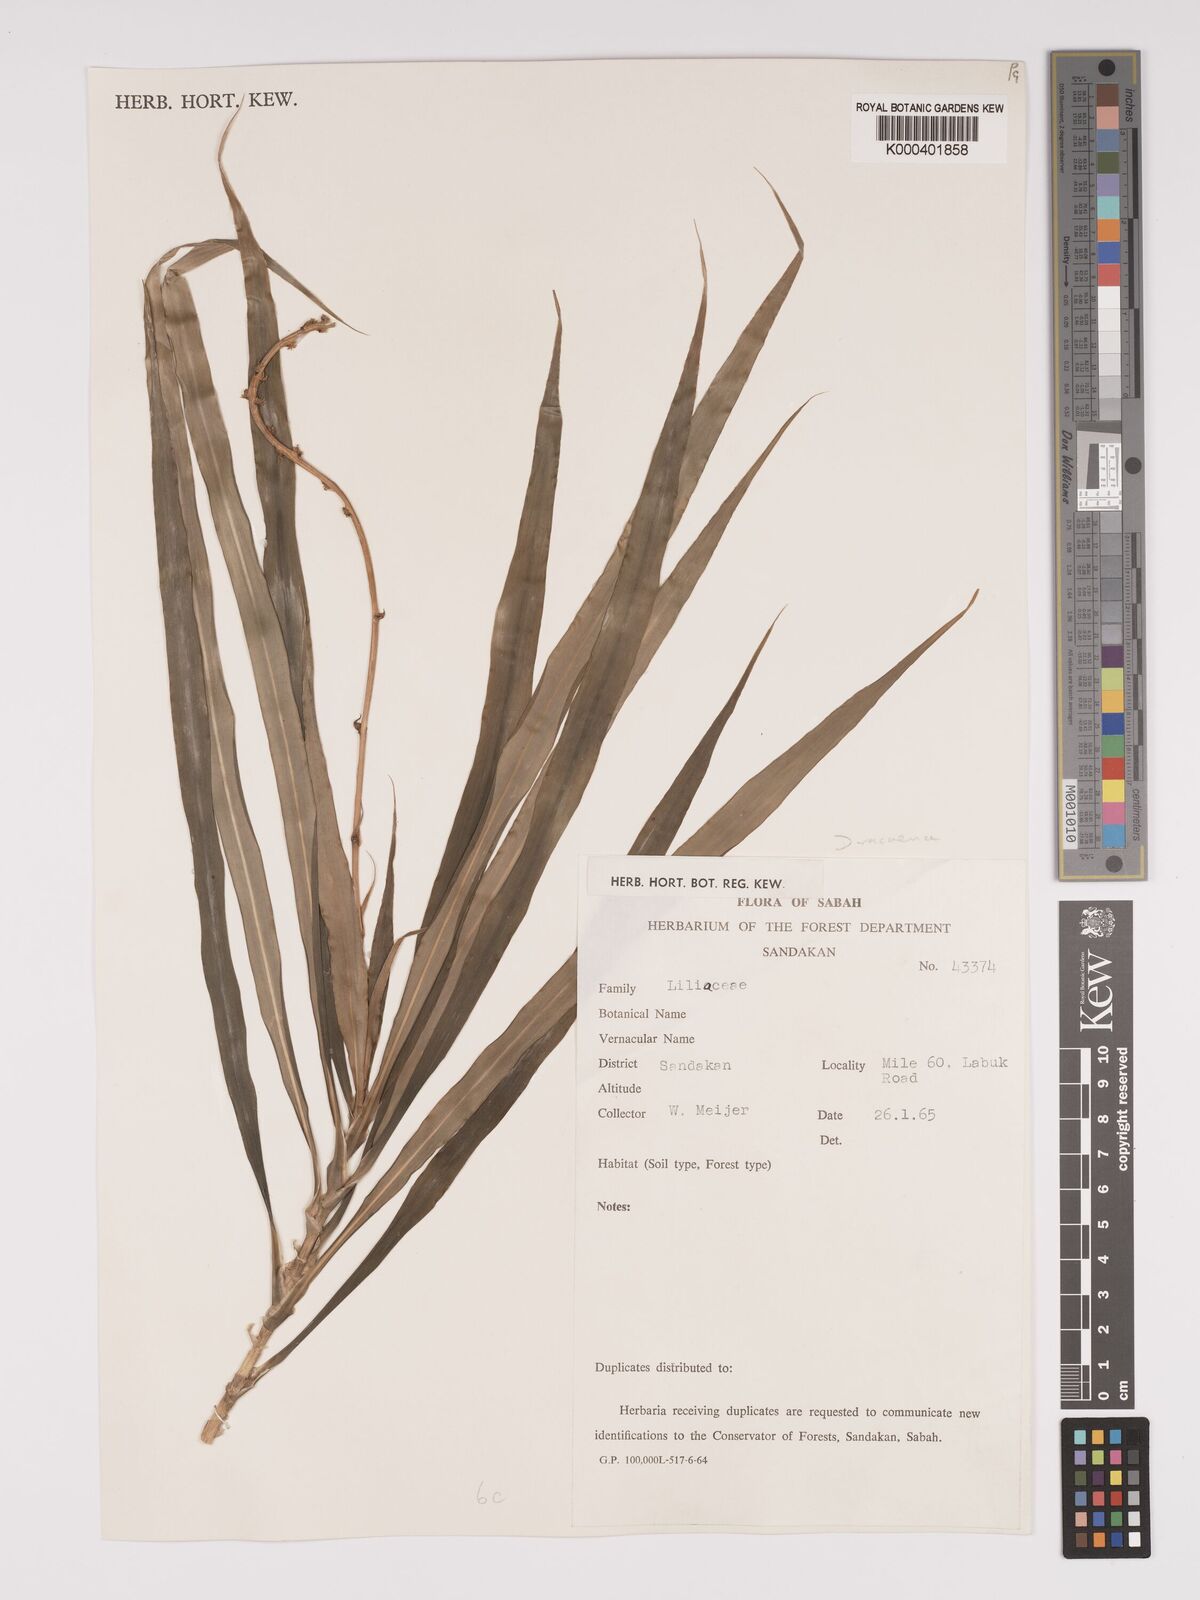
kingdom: Plantae
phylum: Tracheophyta
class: Liliopsida
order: Asparagales
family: Asparagaceae
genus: Dracaena
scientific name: Dracaena
